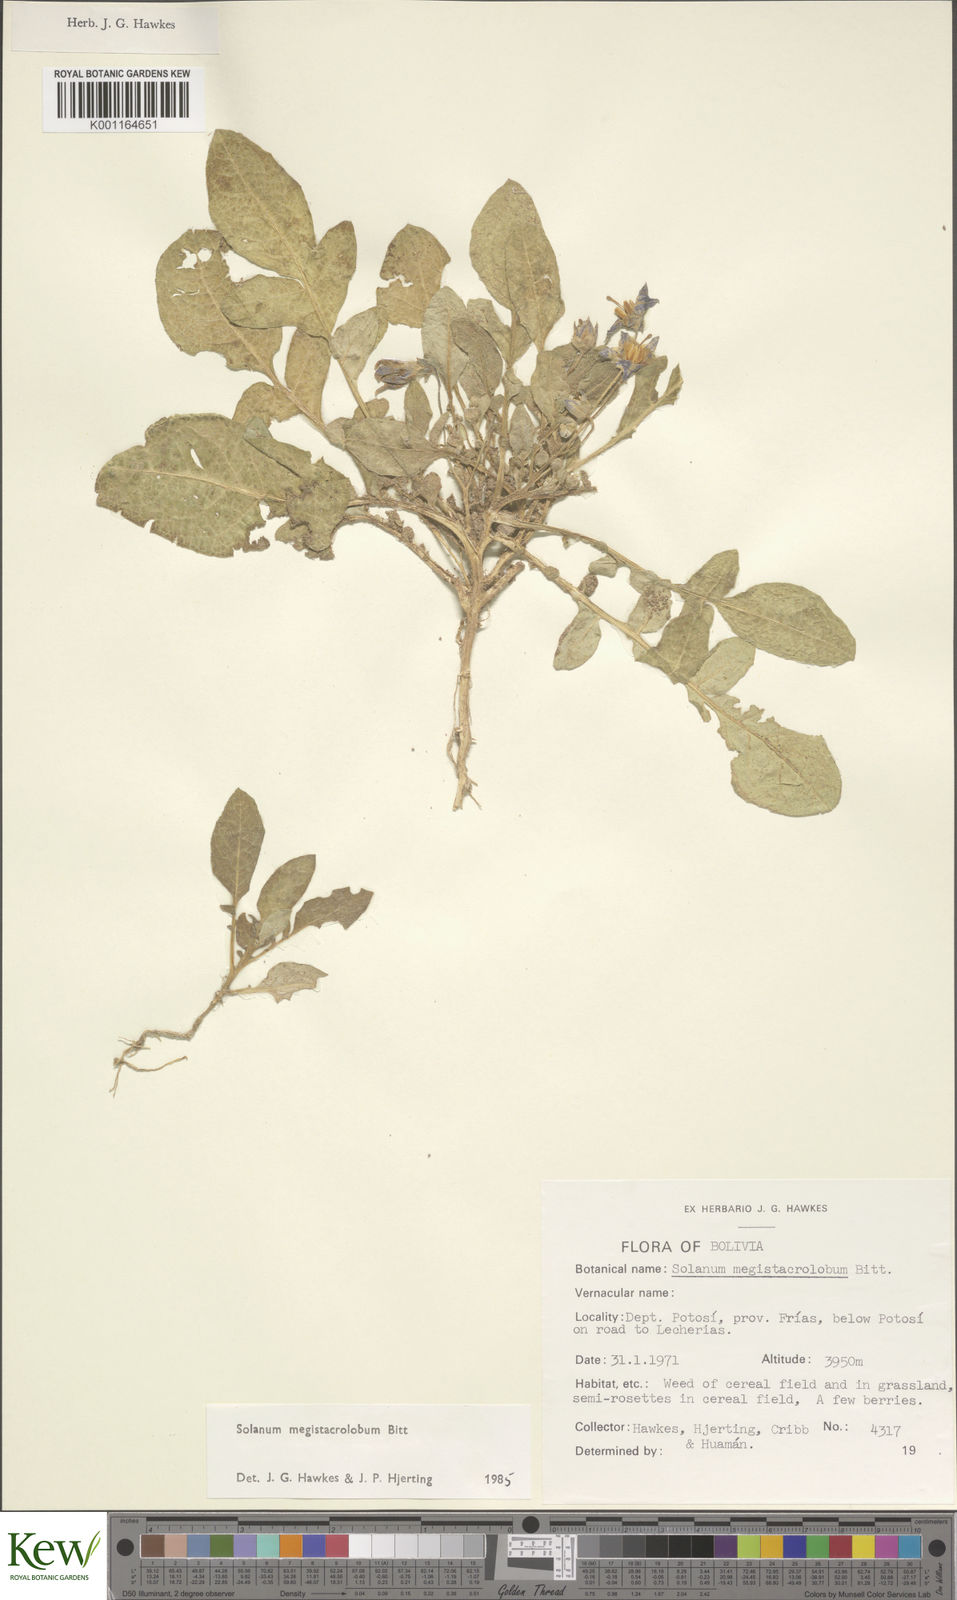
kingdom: Plantae
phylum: Tracheophyta
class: Magnoliopsida
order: Solanales
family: Solanaceae
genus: Solanum
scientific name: Solanum boliviense
